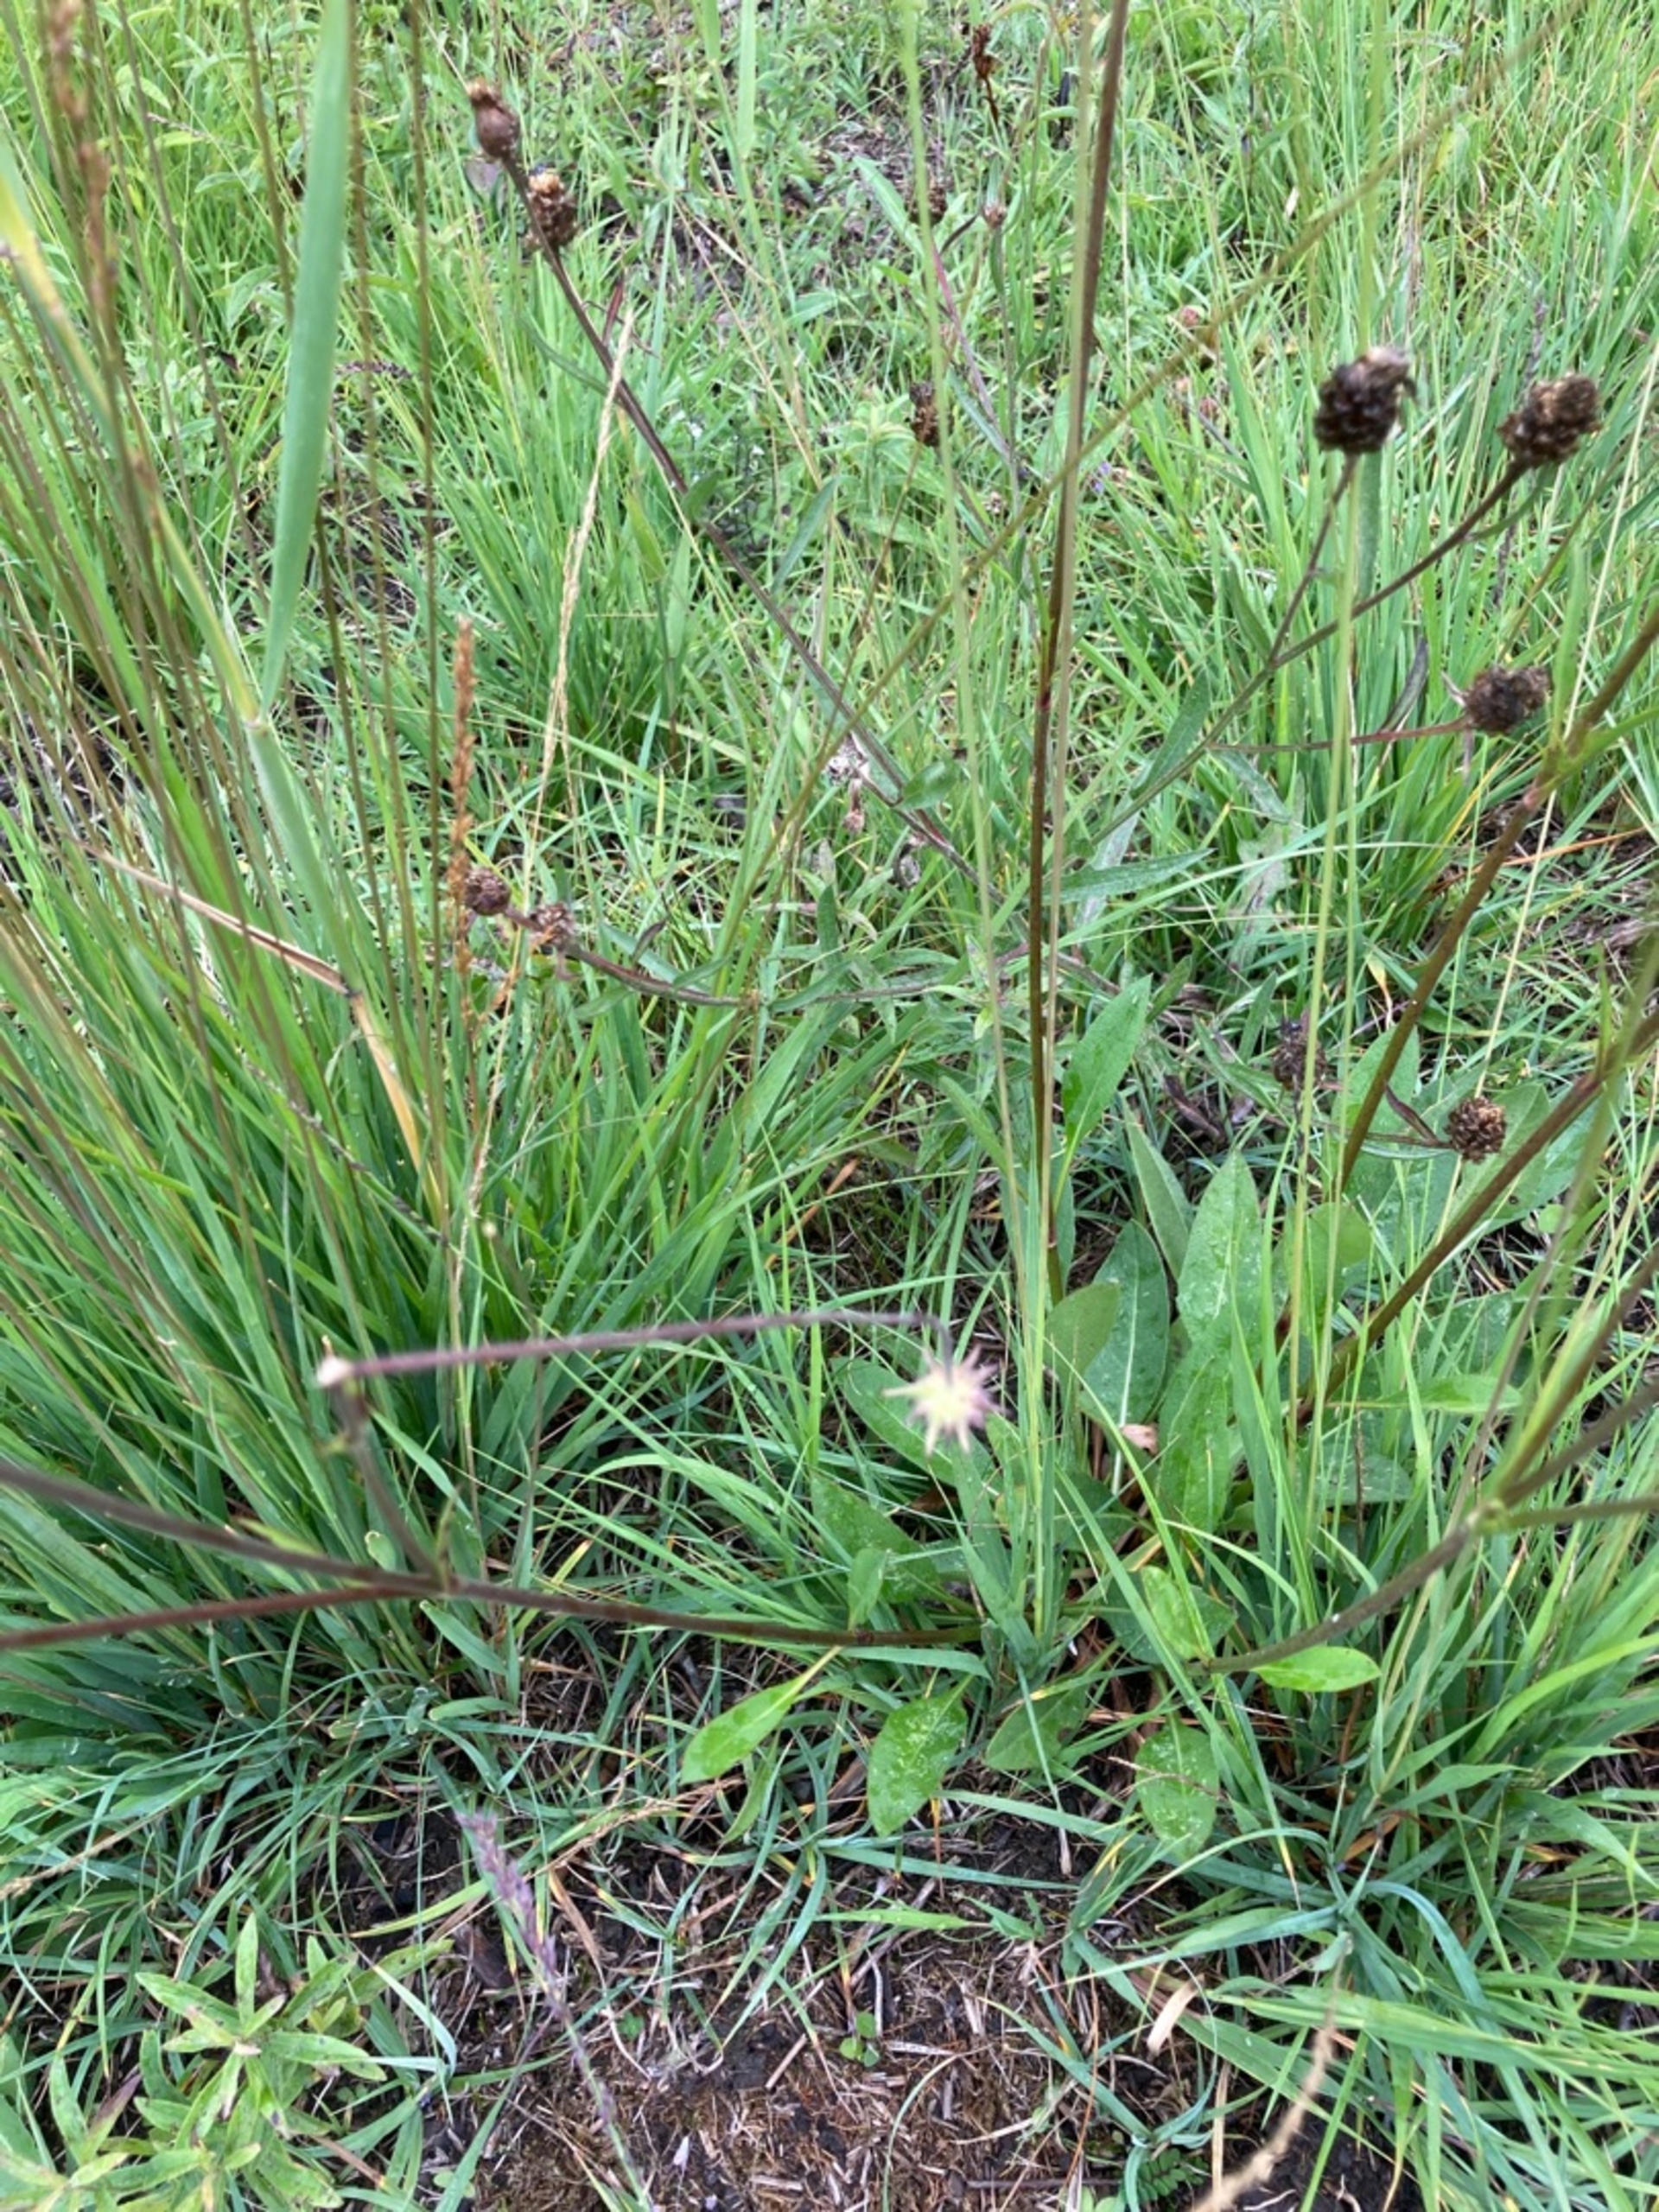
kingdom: Plantae
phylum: Tracheophyta
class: Magnoliopsida
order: Dipsacales
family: Caprifoliaceae
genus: Succisa
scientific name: Succisa pratensis
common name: Djævelsbid
